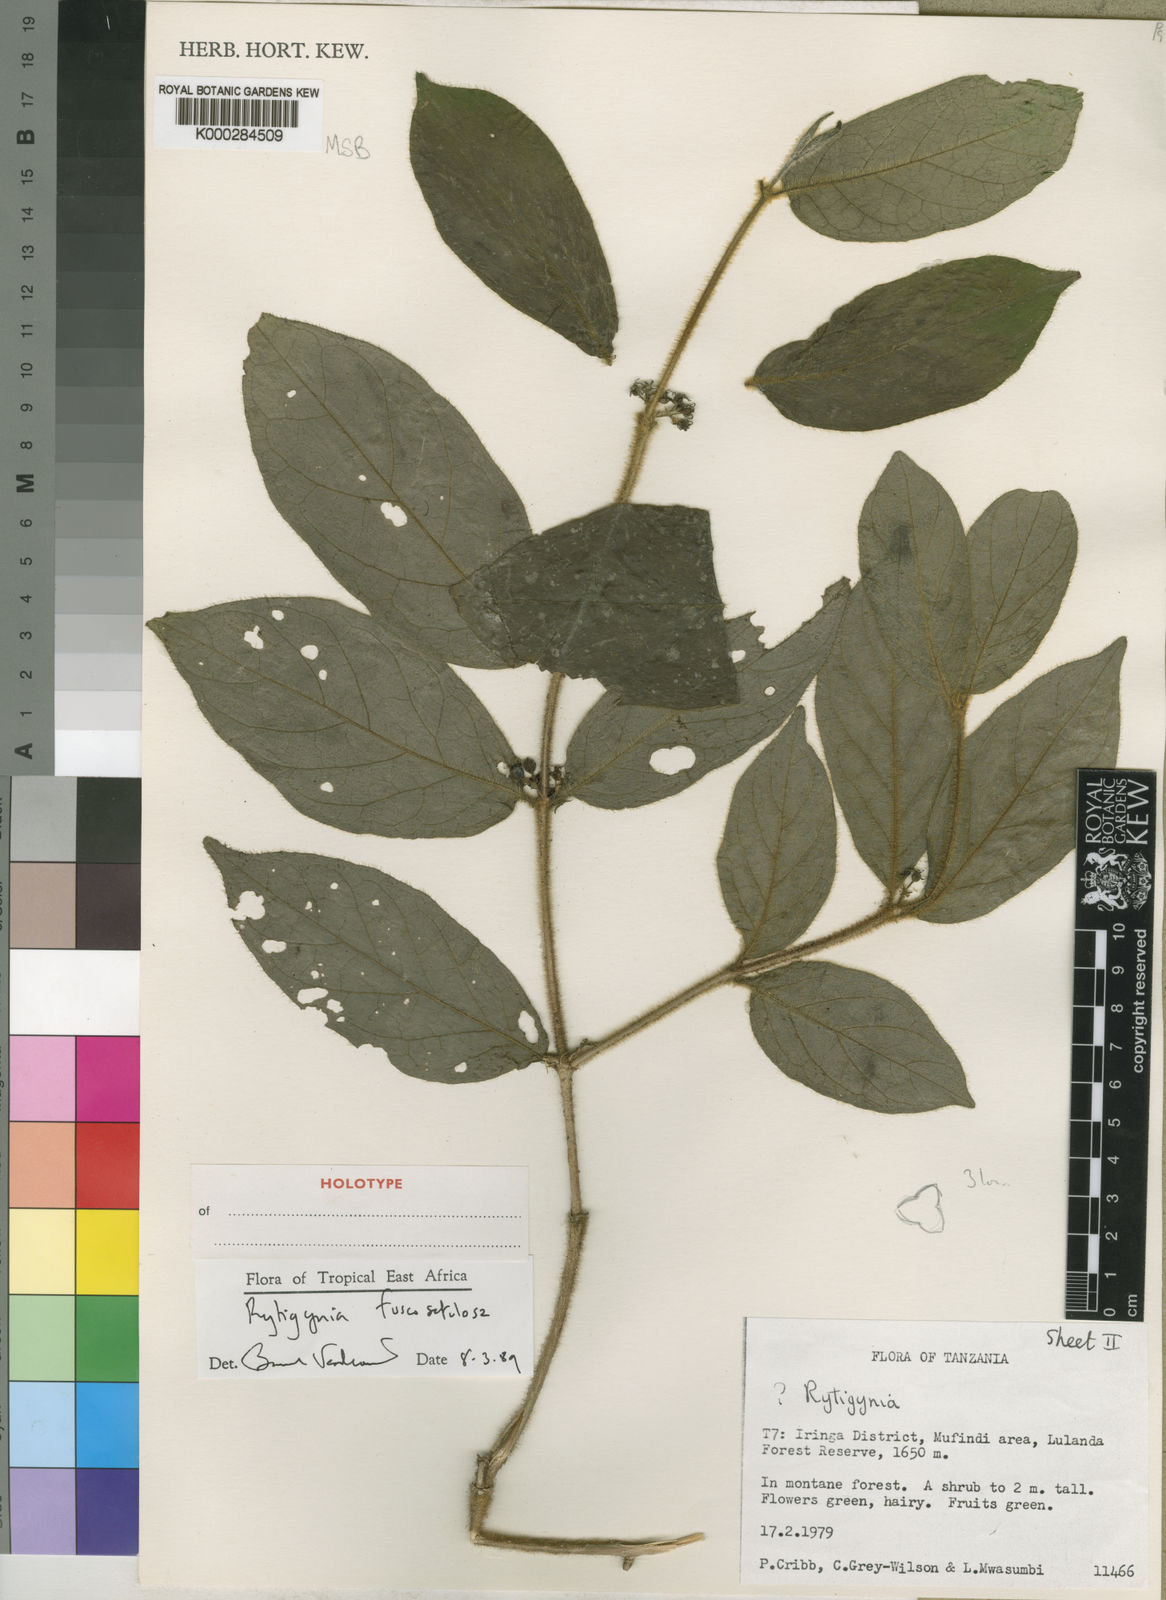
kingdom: Plantae
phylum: Tracheophyta
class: Magnoliopsida
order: Gentianales
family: Rubiaceae
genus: Vangueria
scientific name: Vangueria fuscosetulosa
